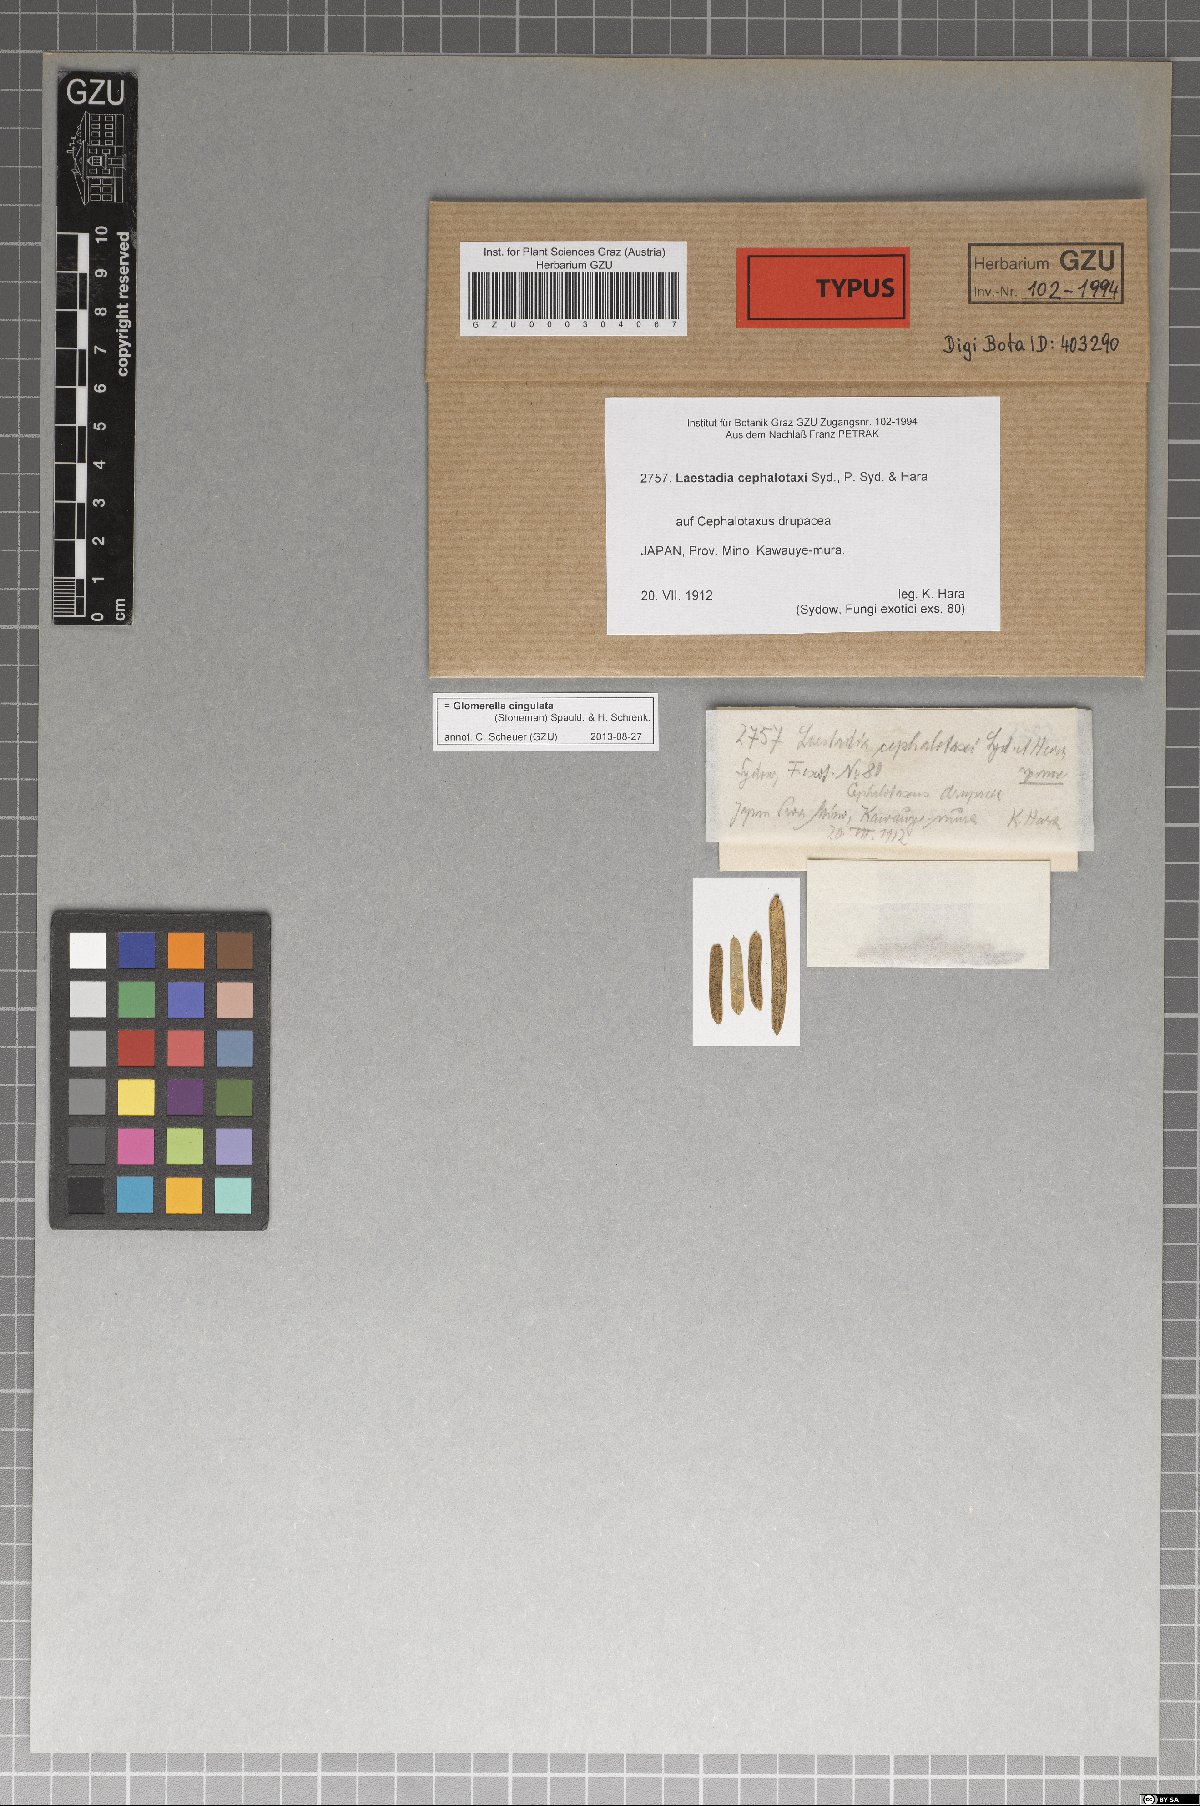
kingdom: Fungi
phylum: Ascomycota
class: Sordariomycetes
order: Glomerellales
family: Glomerellaceae
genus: Colletotrichum
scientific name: Colletotrichum gloeosporioides
